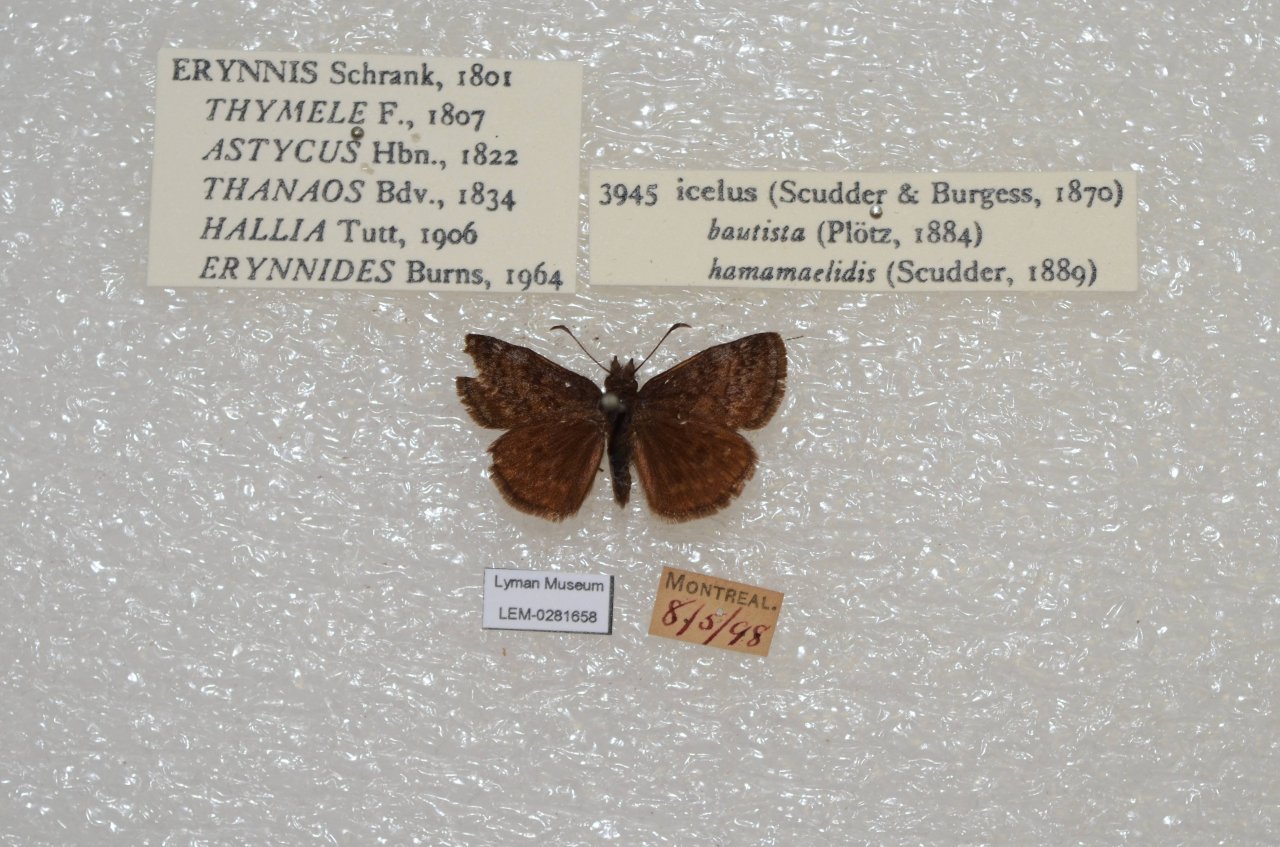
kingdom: Animalia
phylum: Arthropoda
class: Insecta
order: Lepidoptera
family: Hesperiidae
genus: Erynnis
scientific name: Erynnis icelus
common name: Dreamy Duskywing
